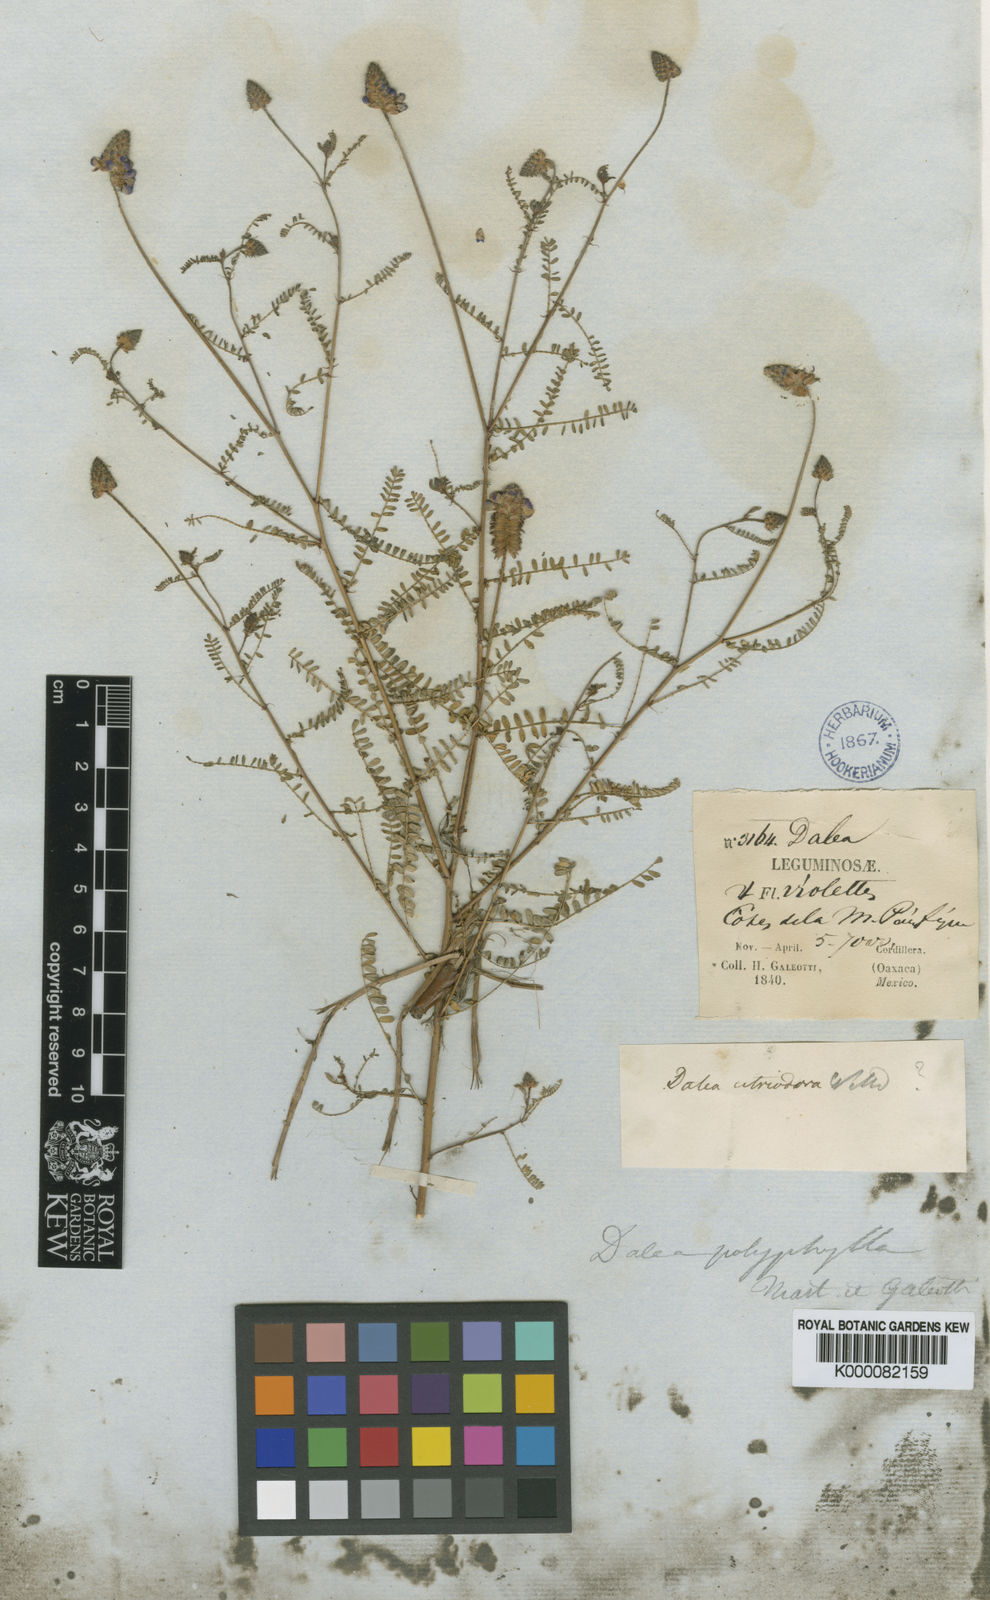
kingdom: Plantae
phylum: Tracheophyta
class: Magnoliopsida
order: Fabales
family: Fabaceae
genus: Dalea
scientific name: Dalea foliolosa
